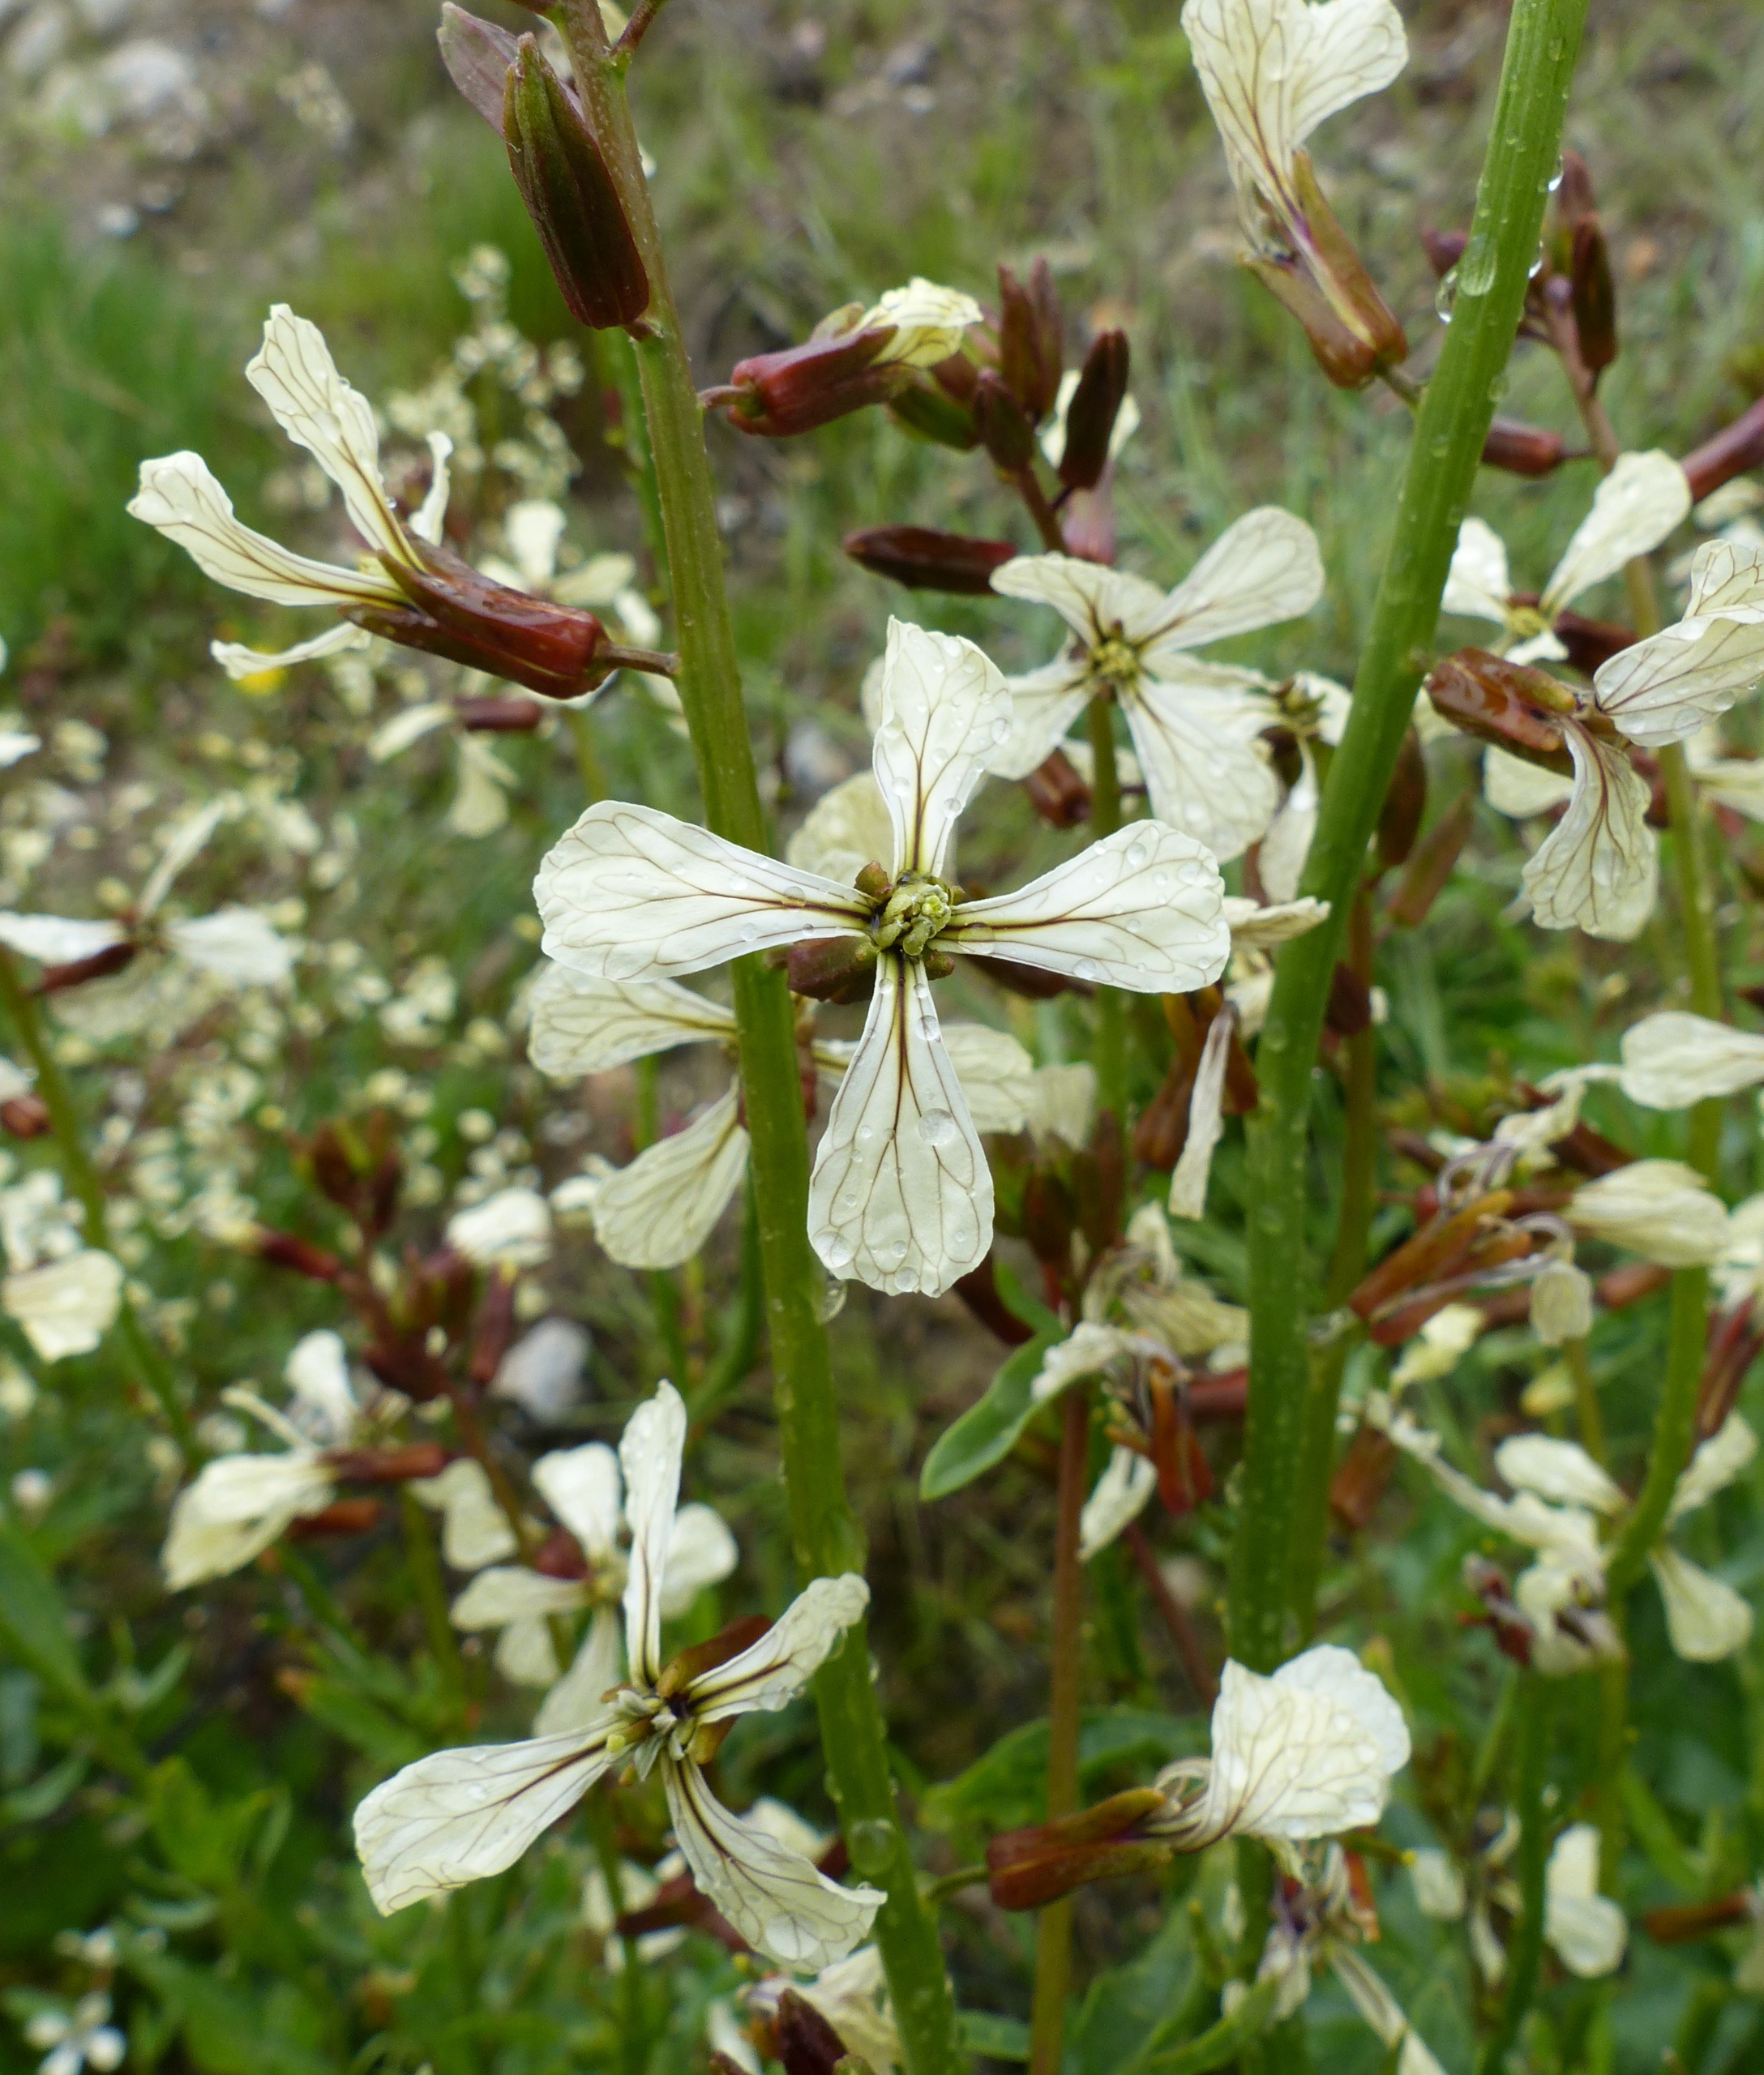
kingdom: Plantae
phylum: Tracheophyta
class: Magnoliopsida
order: Brassicales
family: Brassicaceae
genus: Eruca
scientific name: Eruca vesicaria
